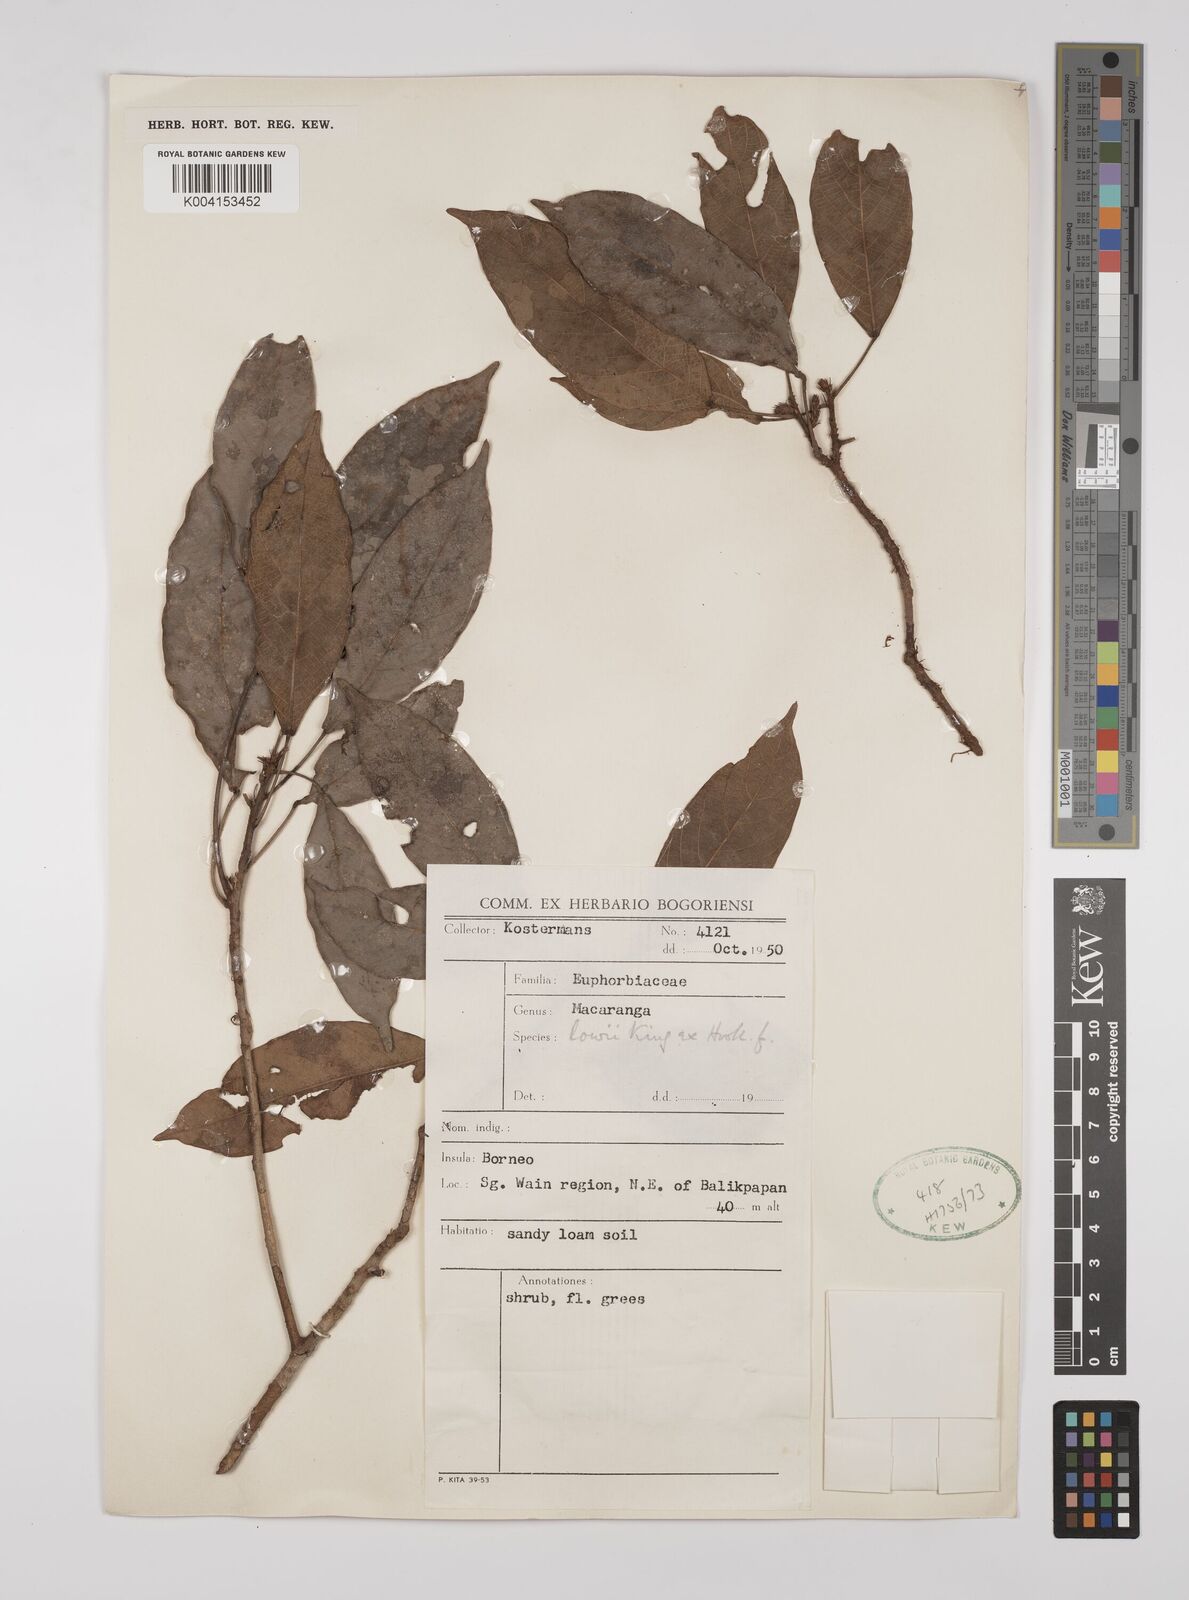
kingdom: Plantae
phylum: Tracheophyta
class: Magnoliopsida
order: Malpighiales
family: Euphorbiaceae
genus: Macaranga
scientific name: Macaranga lowii
